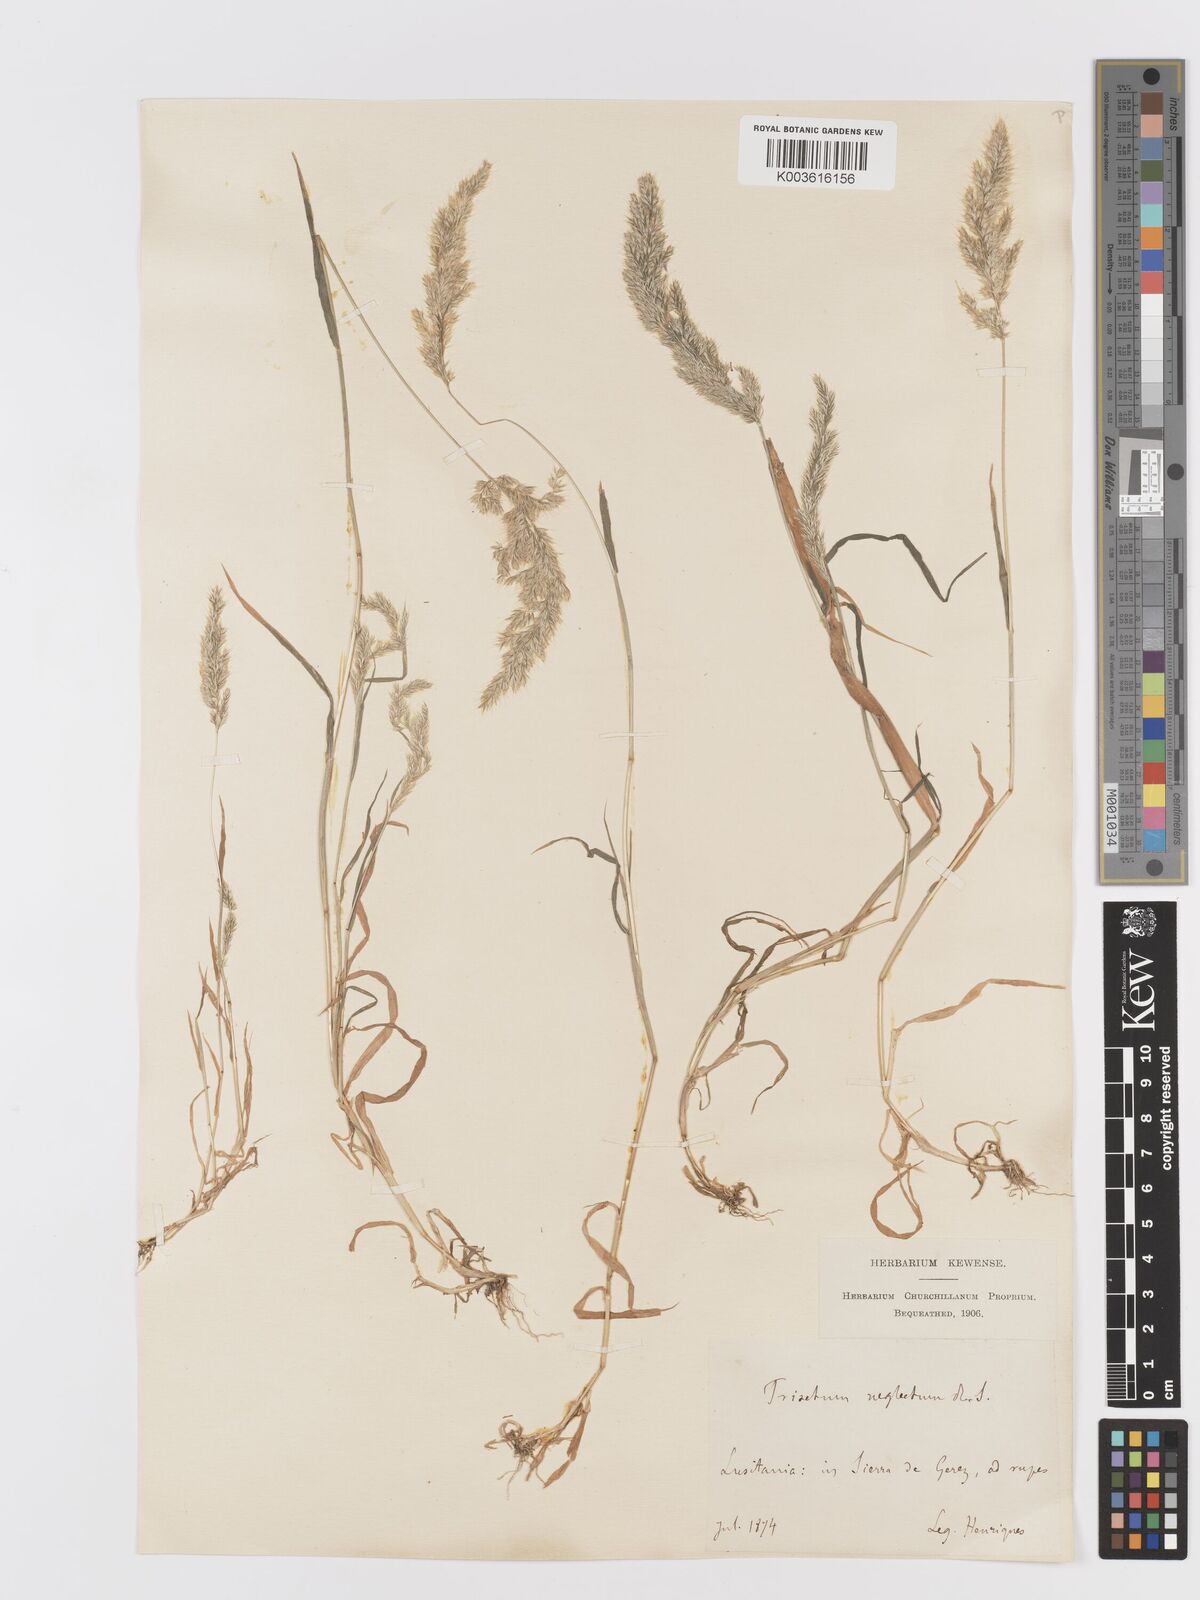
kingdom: Plantae
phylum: Tracheophyta
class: Liliopsida
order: Poales
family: Poaceae
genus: Trisetaria
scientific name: Trisetaria panicea
